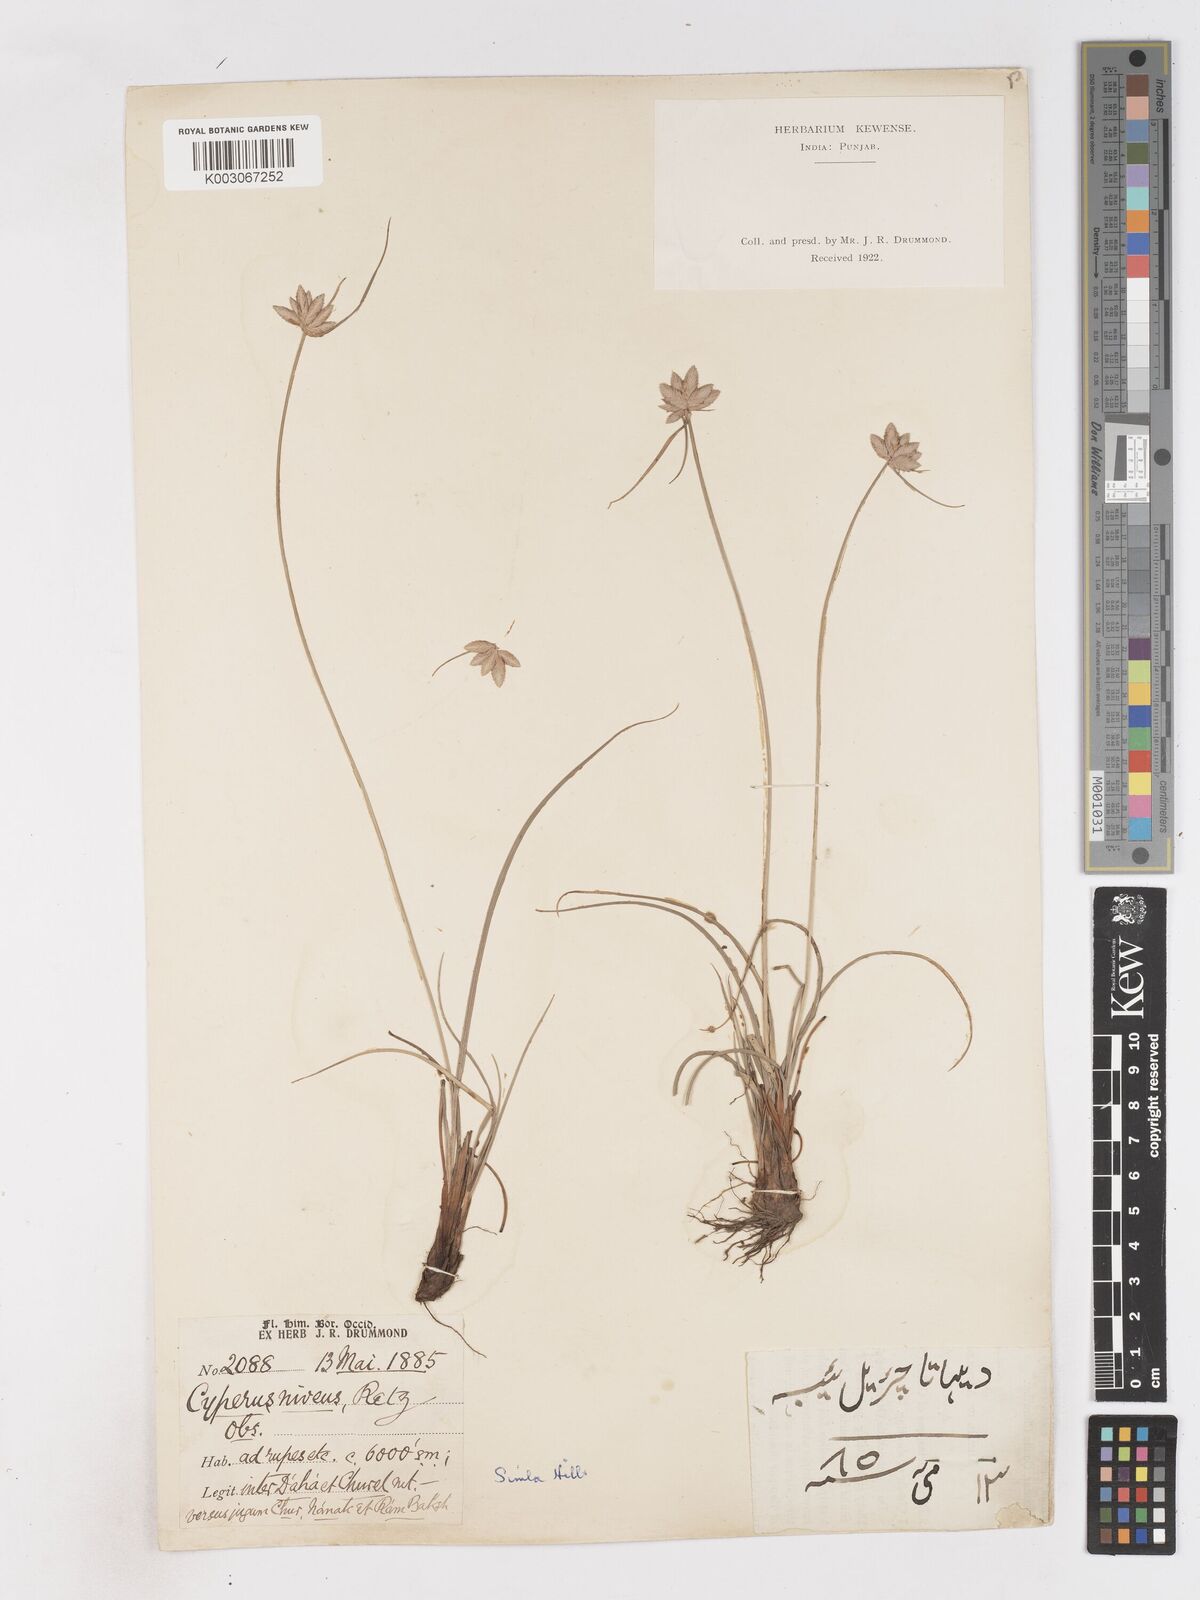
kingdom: Plantae
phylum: Tracheophyta
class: Liliopsida
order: Poales
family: Cyperaceae
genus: Cyperus
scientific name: Cyperus niveus
